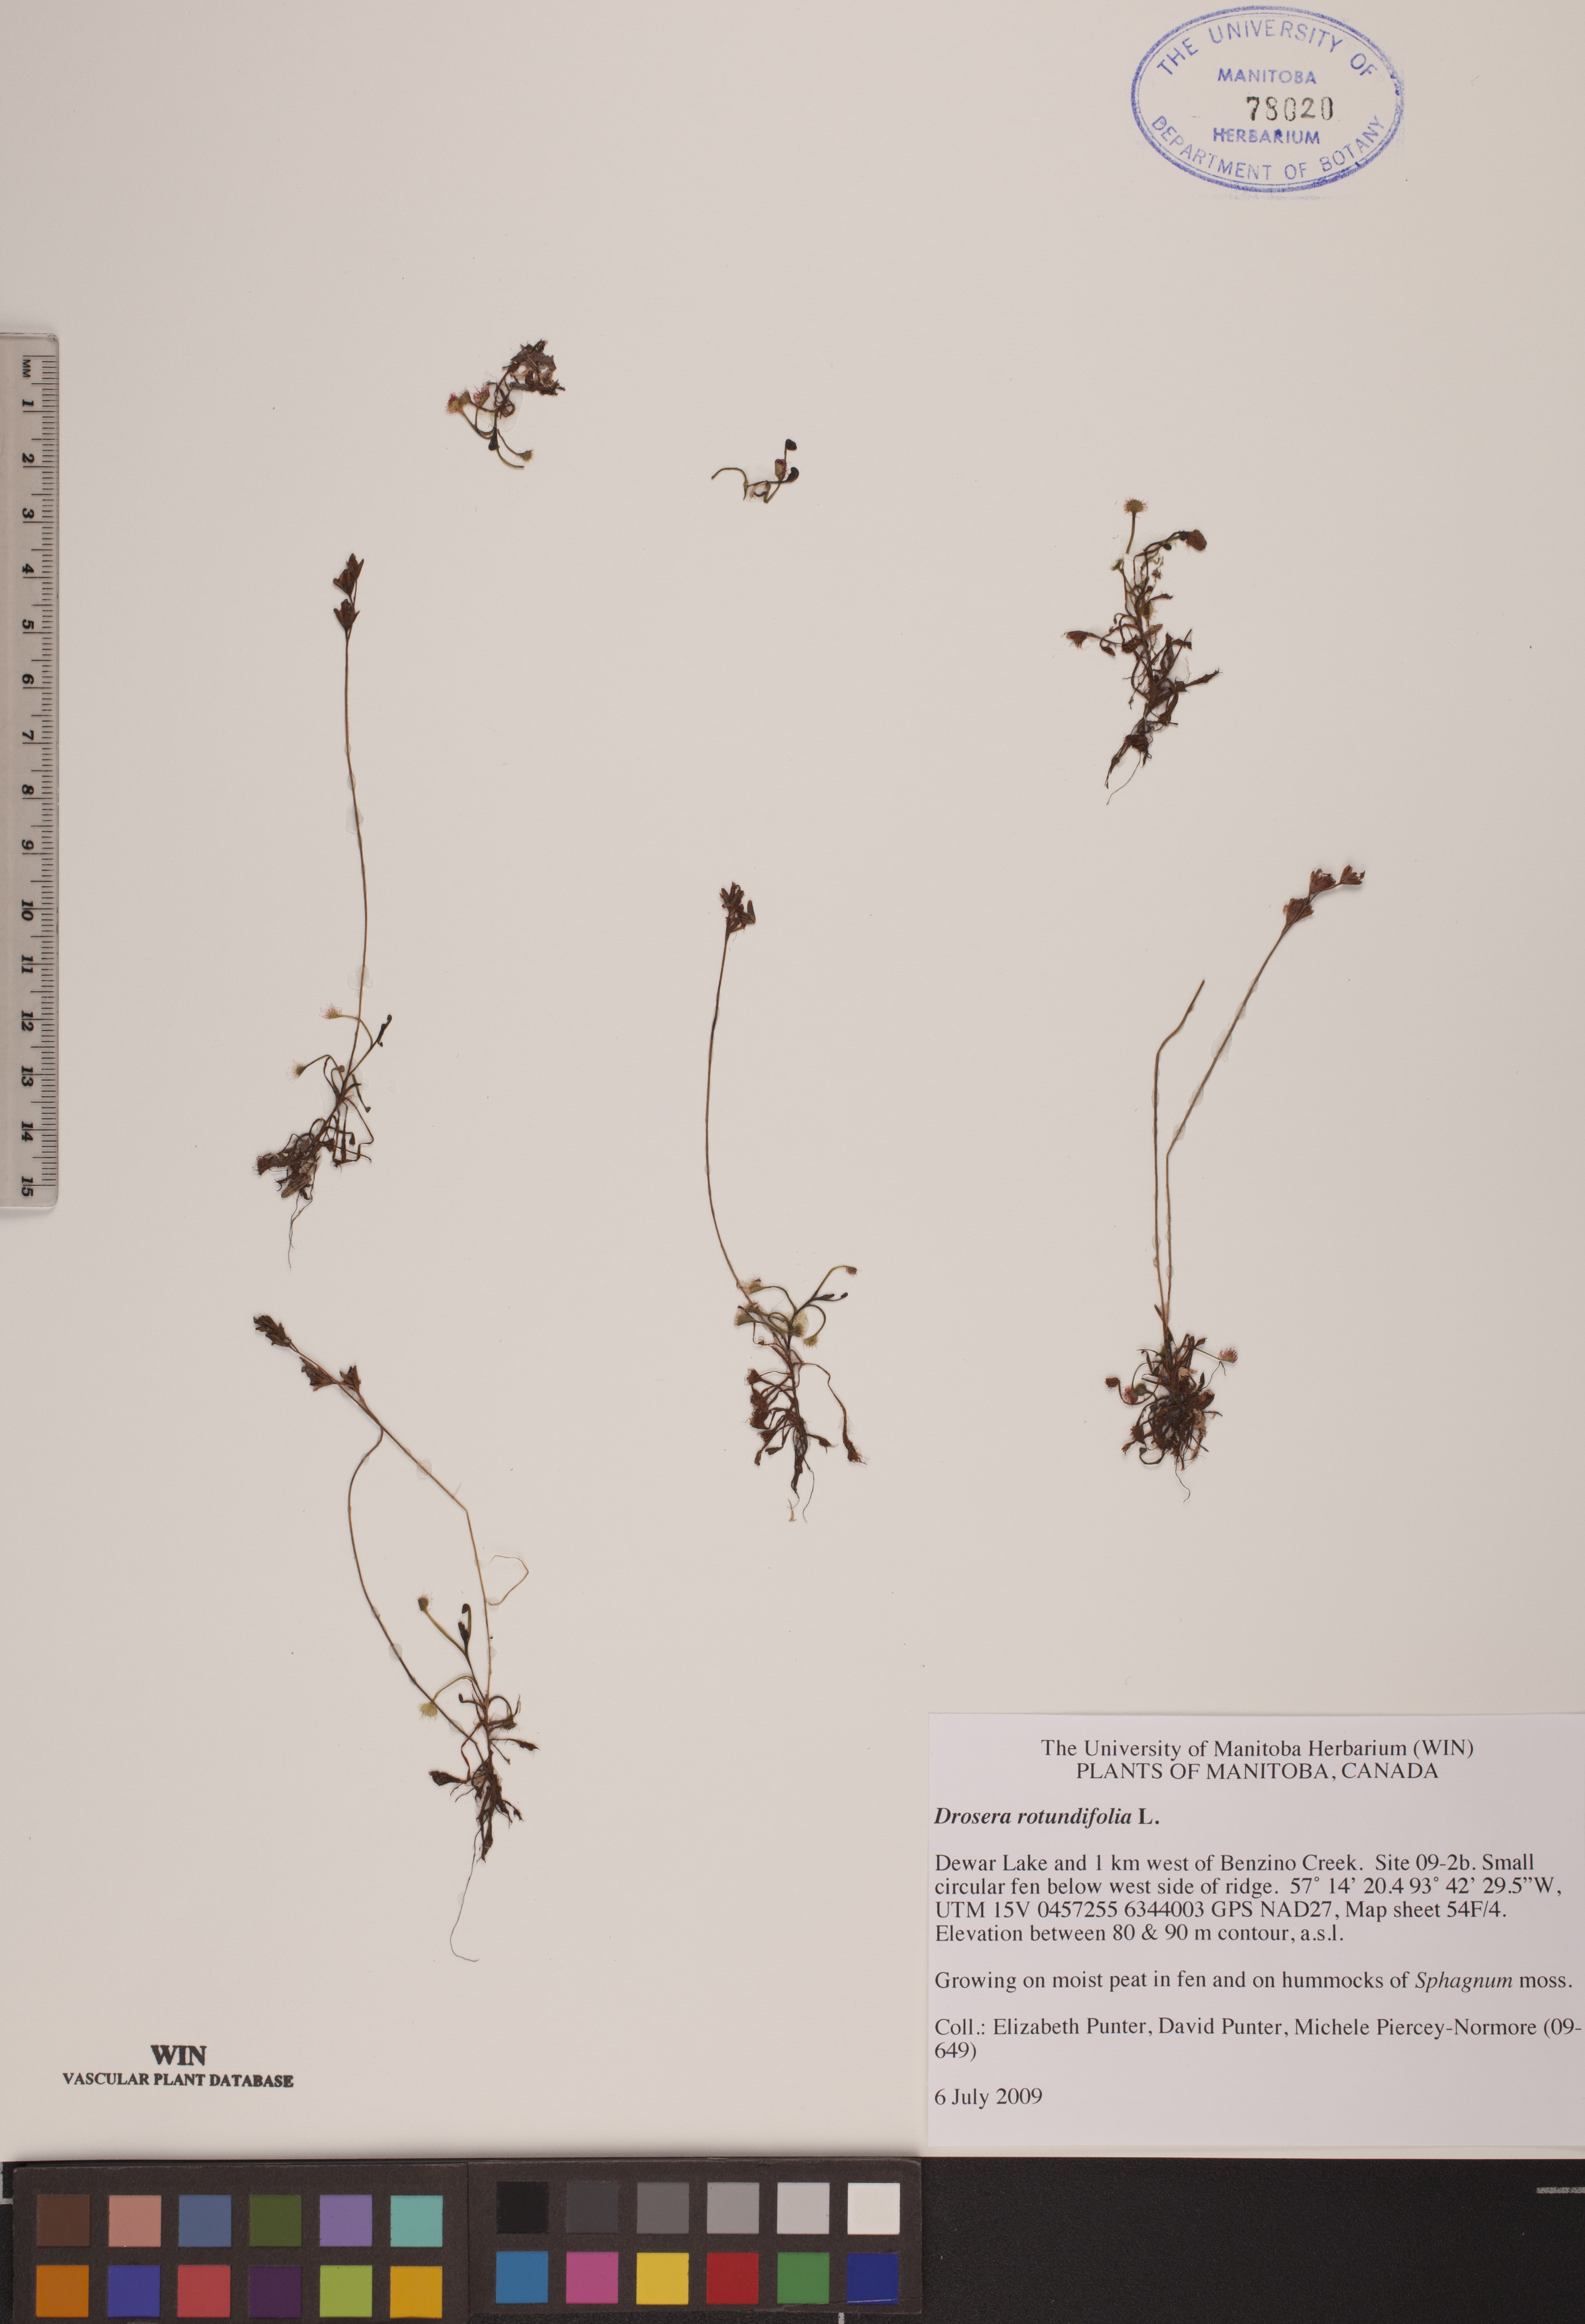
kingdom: Plantae
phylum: Tracheophyta
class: Magnoliopsida
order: Caryophyllales
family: Droseraceae
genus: Drosera
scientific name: Drosera rotundifolia
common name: Round-leaved sundew
